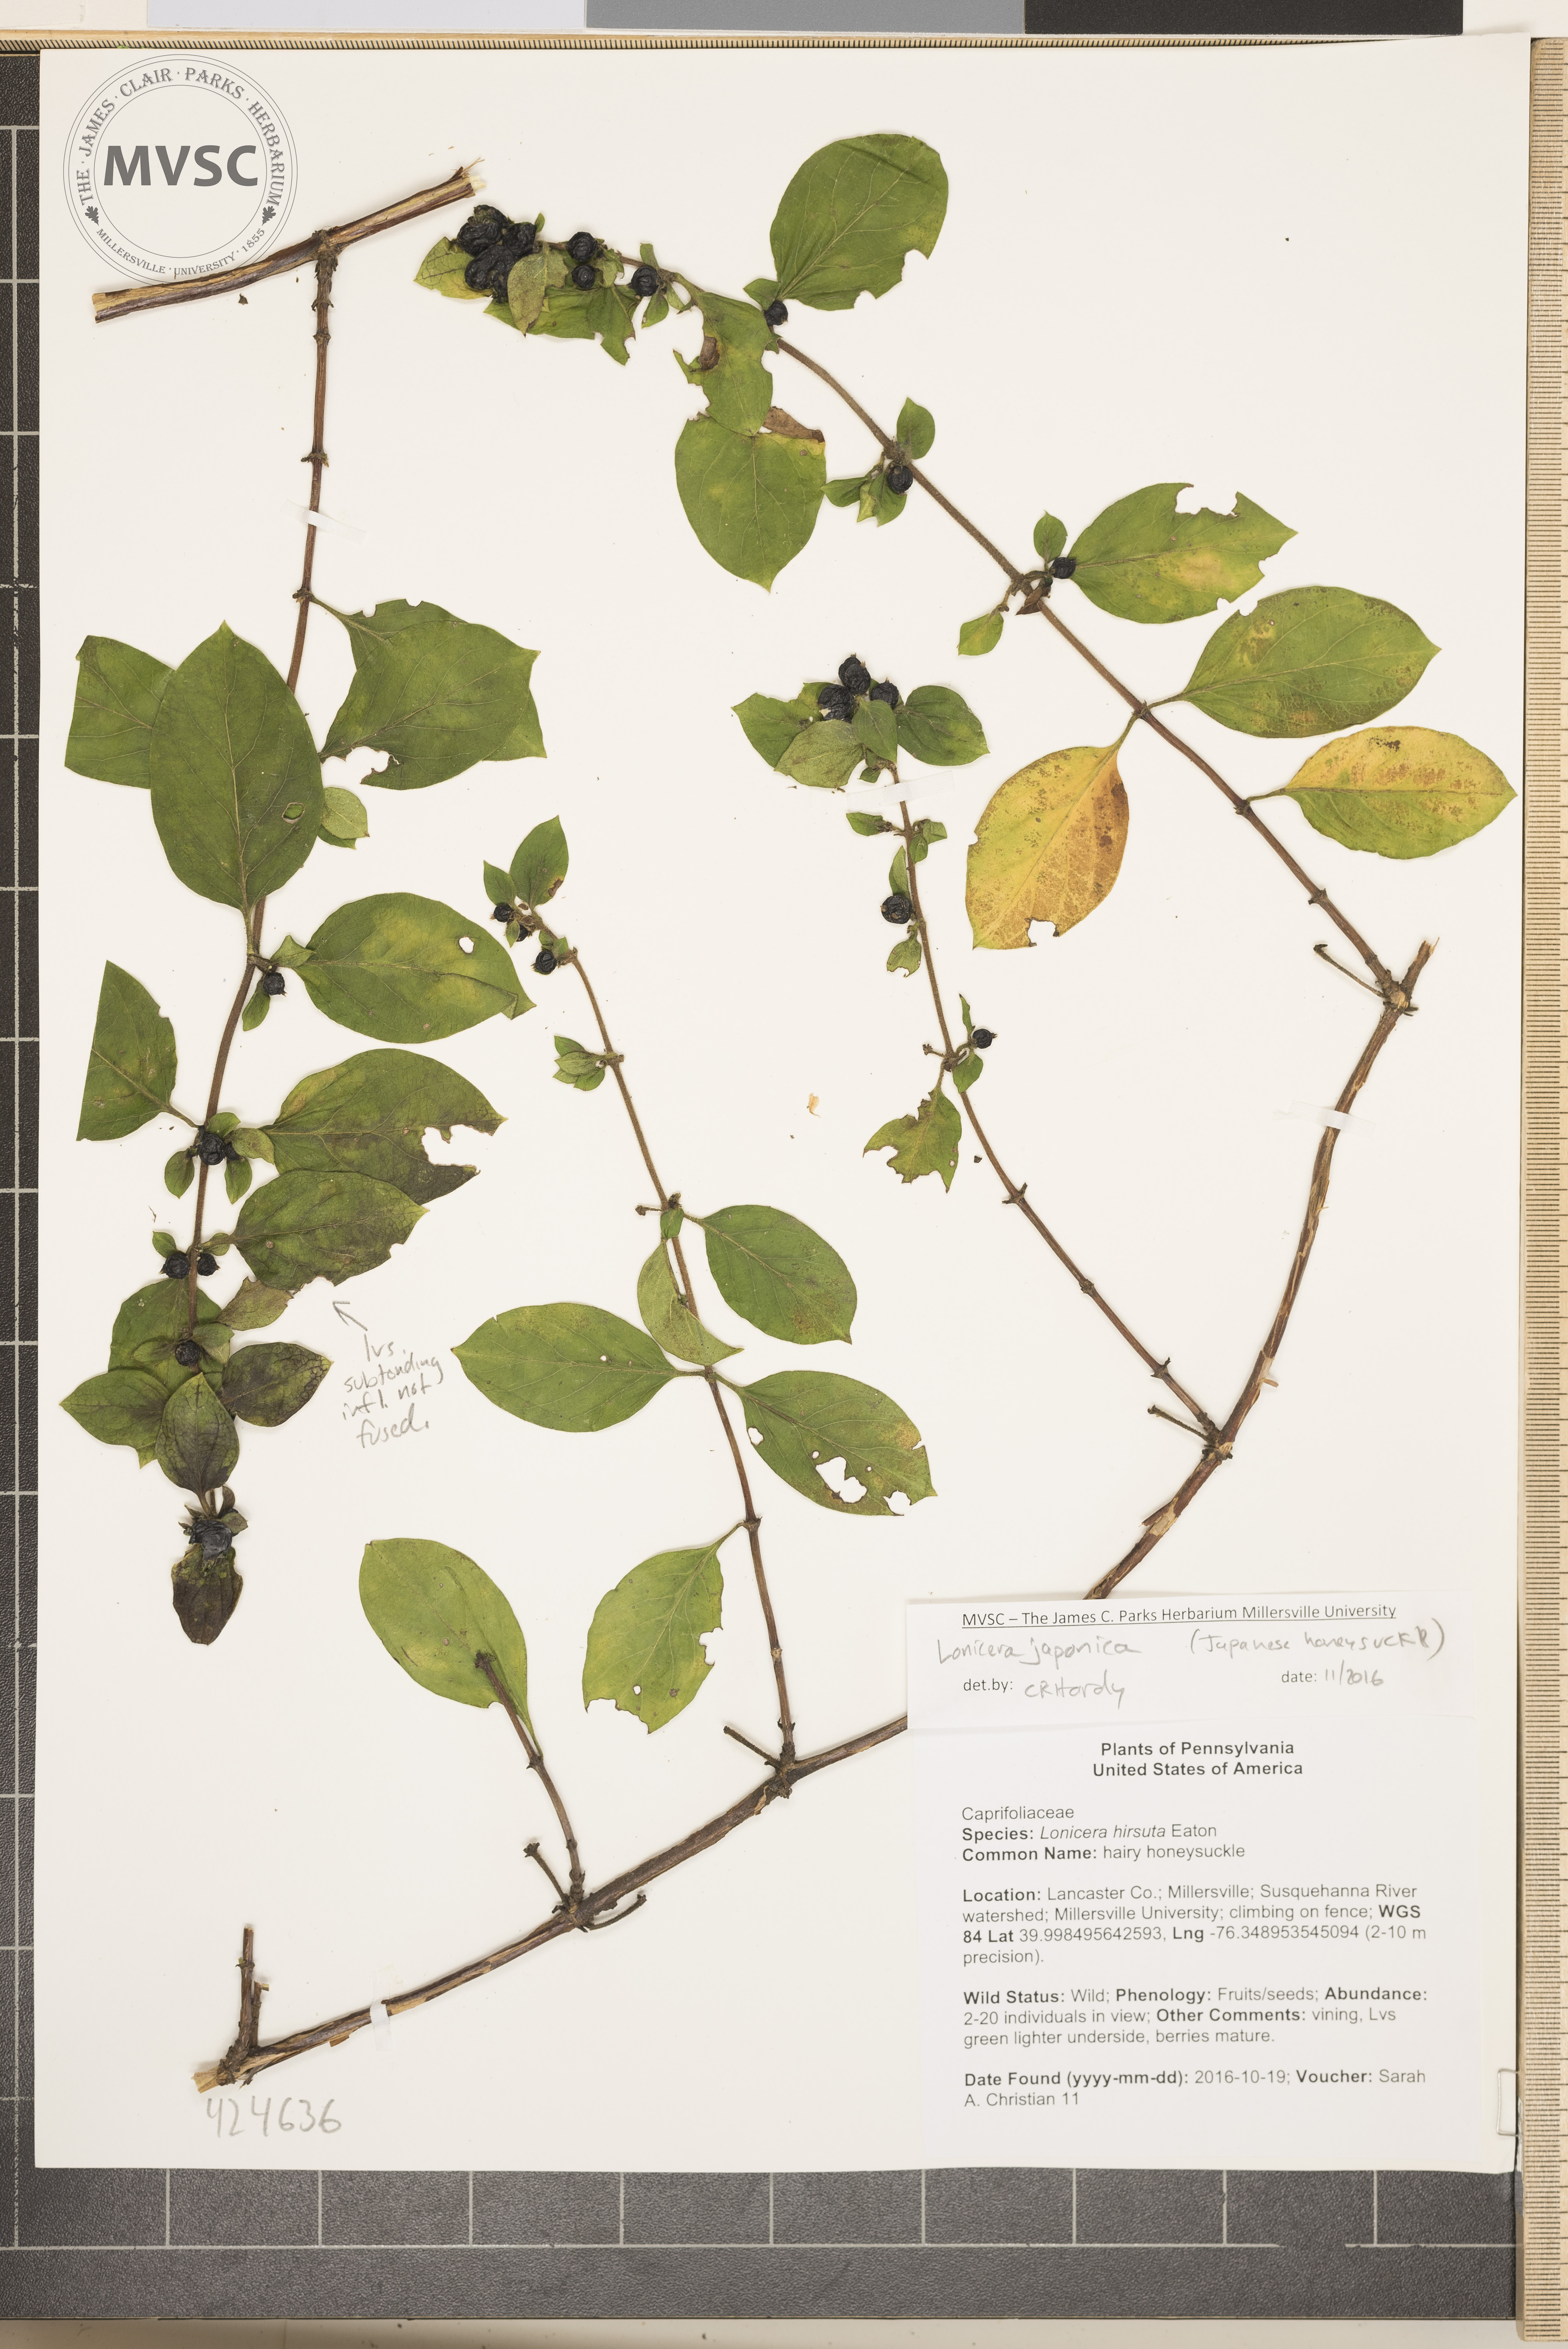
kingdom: Plantae
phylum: Tracheophyta
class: Magnoliopsida
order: Dipsacales
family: Caprifoliaceae
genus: Lonicera
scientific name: Lonicera japonica
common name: Japanese honeysuckle
